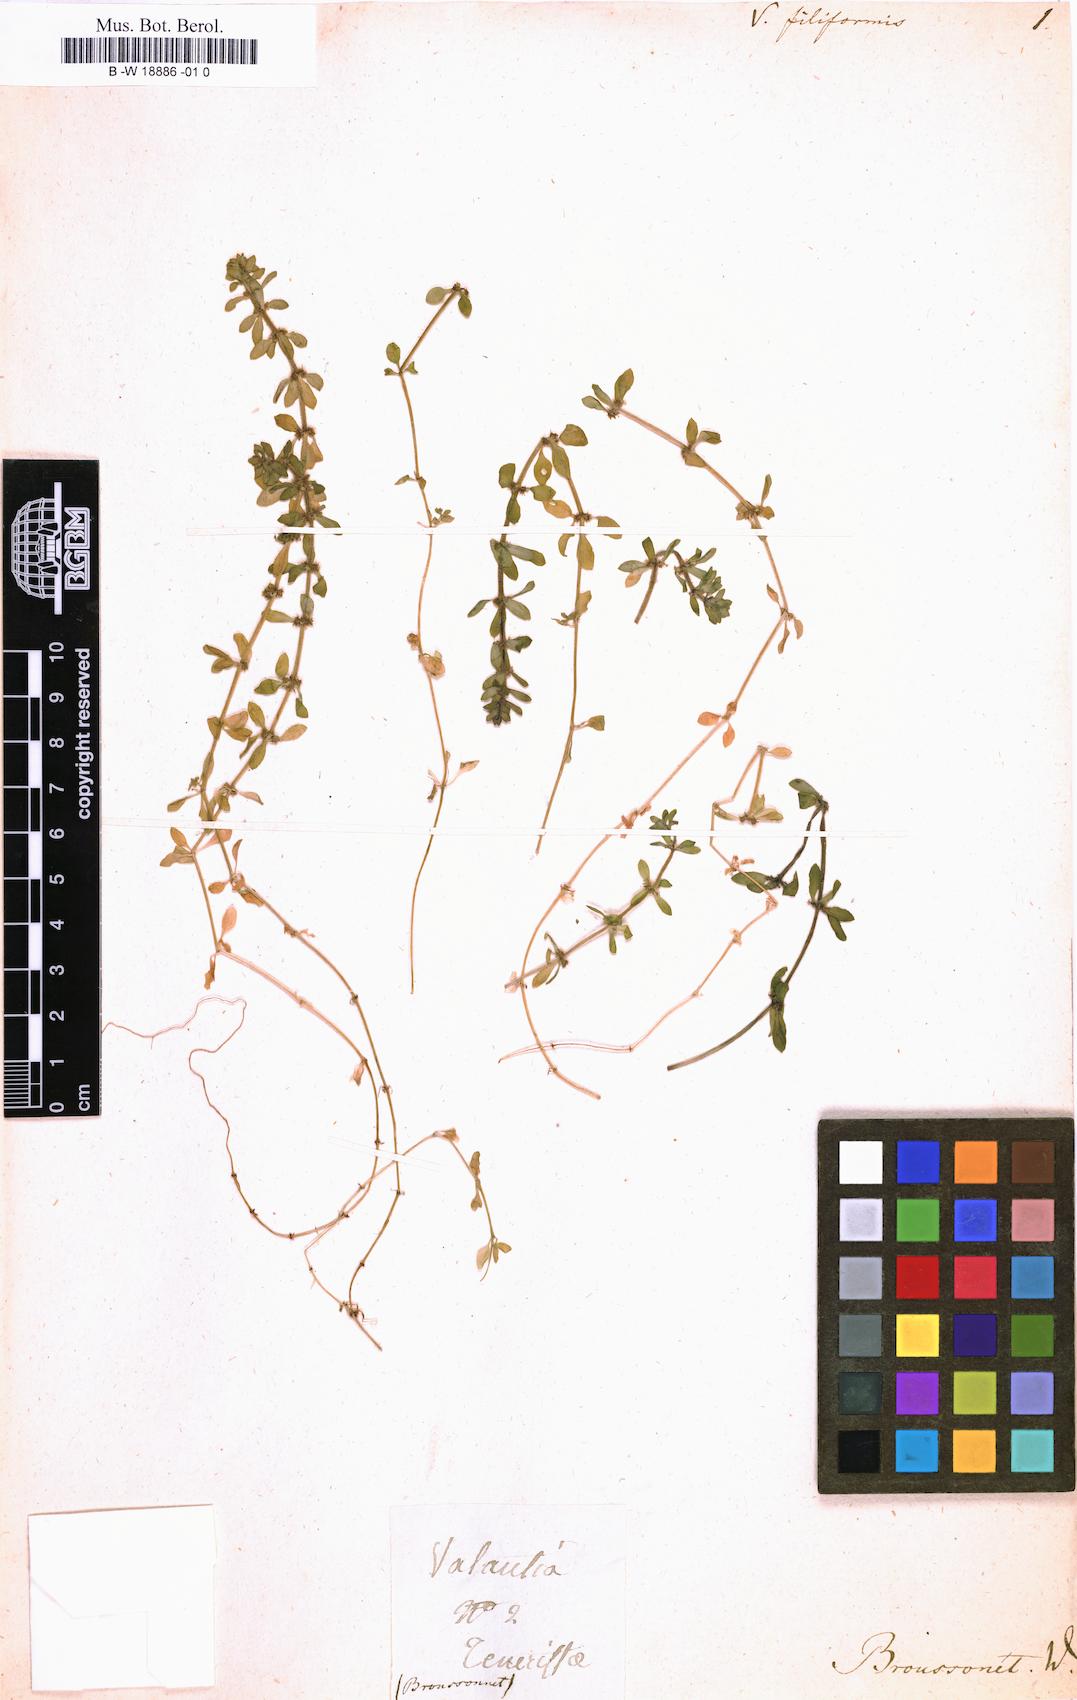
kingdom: Plantae
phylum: Tracheophyta
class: Magnoliopsida
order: Gentianales
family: Rubiaceae
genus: Galium
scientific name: Galium murale
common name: Yellow wall bedstraw
